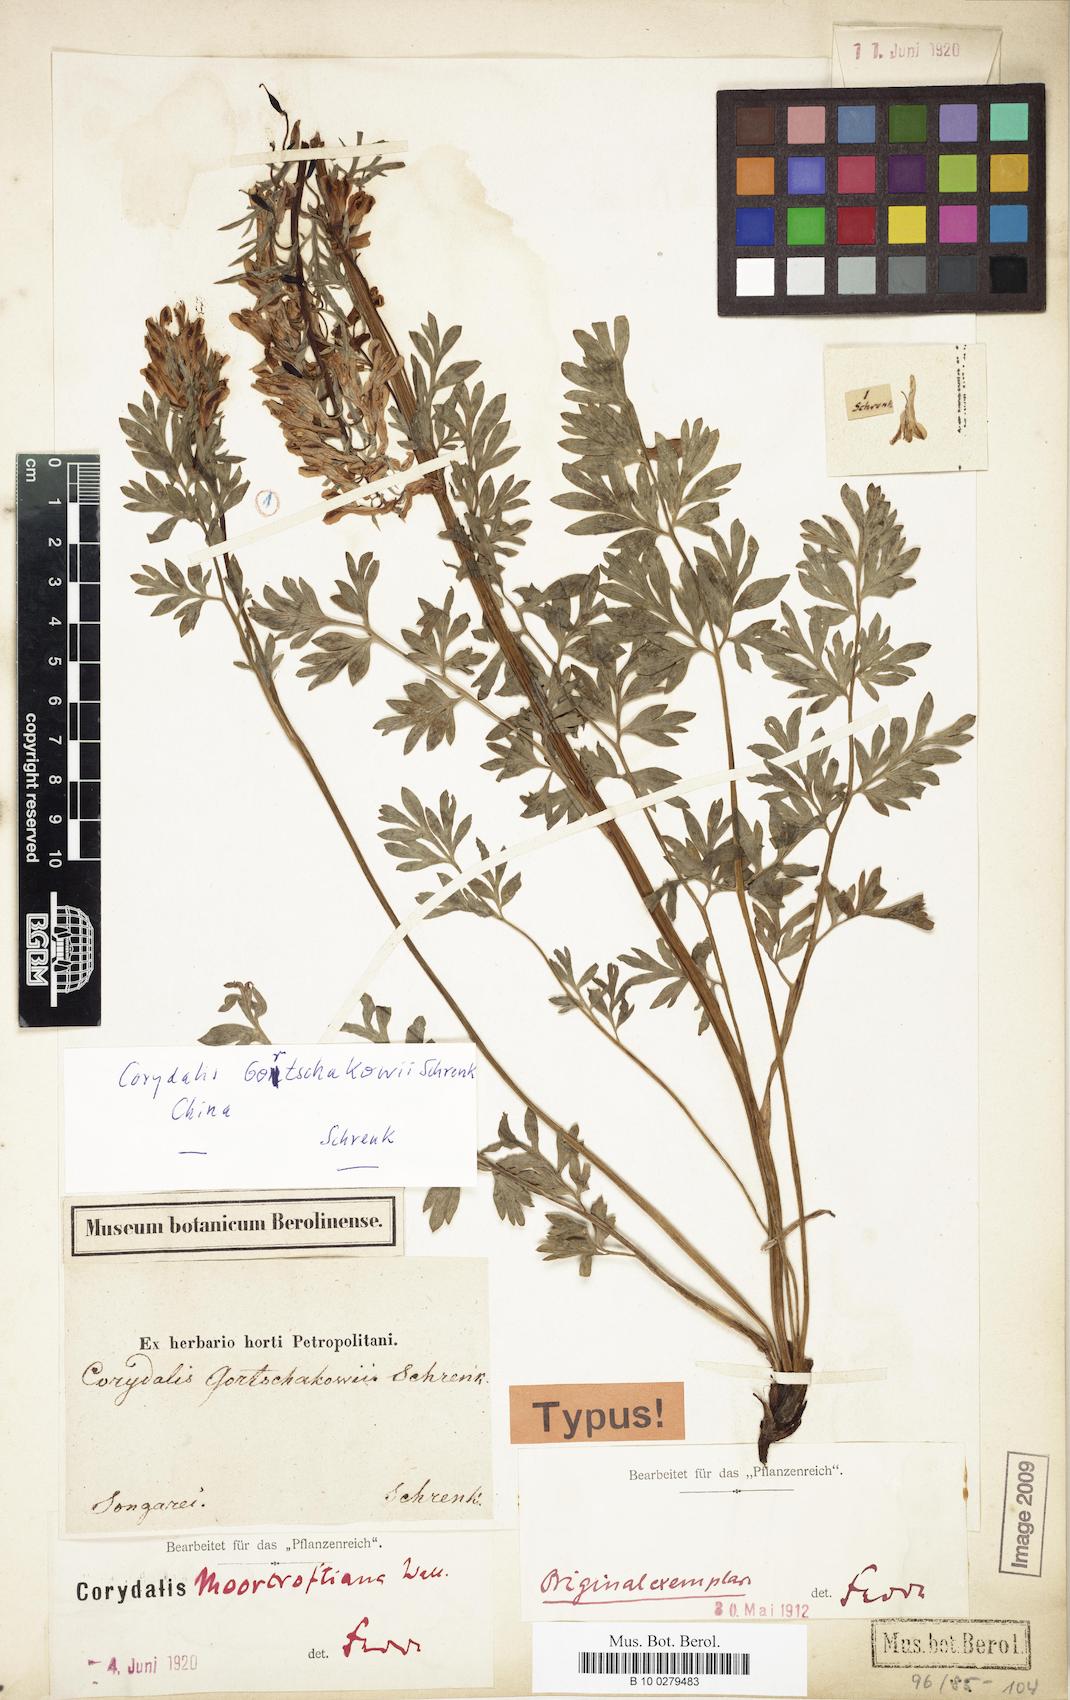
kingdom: Plantae
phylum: Tracheophyta
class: Magnoliopsida
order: Ranunculales
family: Papaveraceae
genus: Corydalis
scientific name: Corydalis gortschakovii
